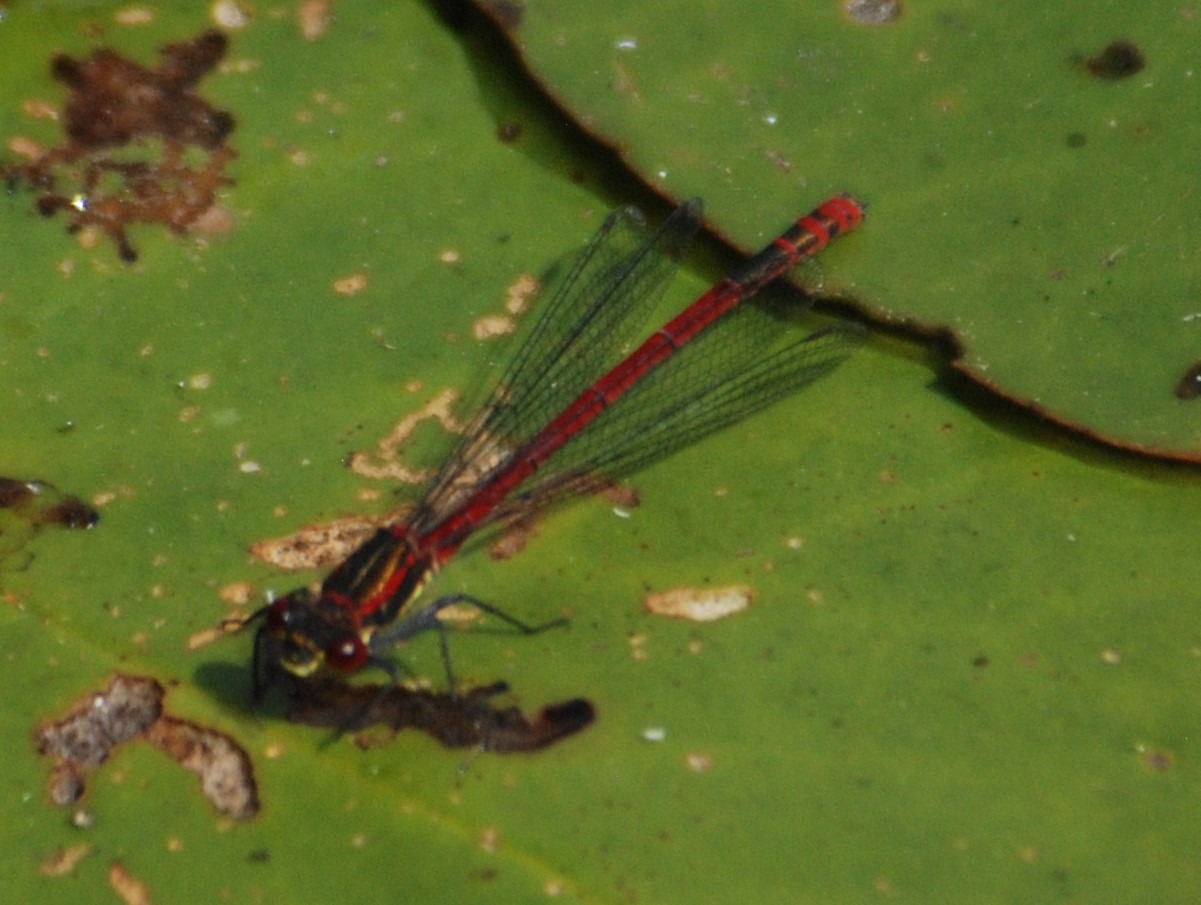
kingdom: Animalia
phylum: Arthropoda
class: Insecta
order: Odonata
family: Coenagrionidae
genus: Pyrrhosoma
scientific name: Pyrrhosoma nymphula
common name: Rød vandnymfe
